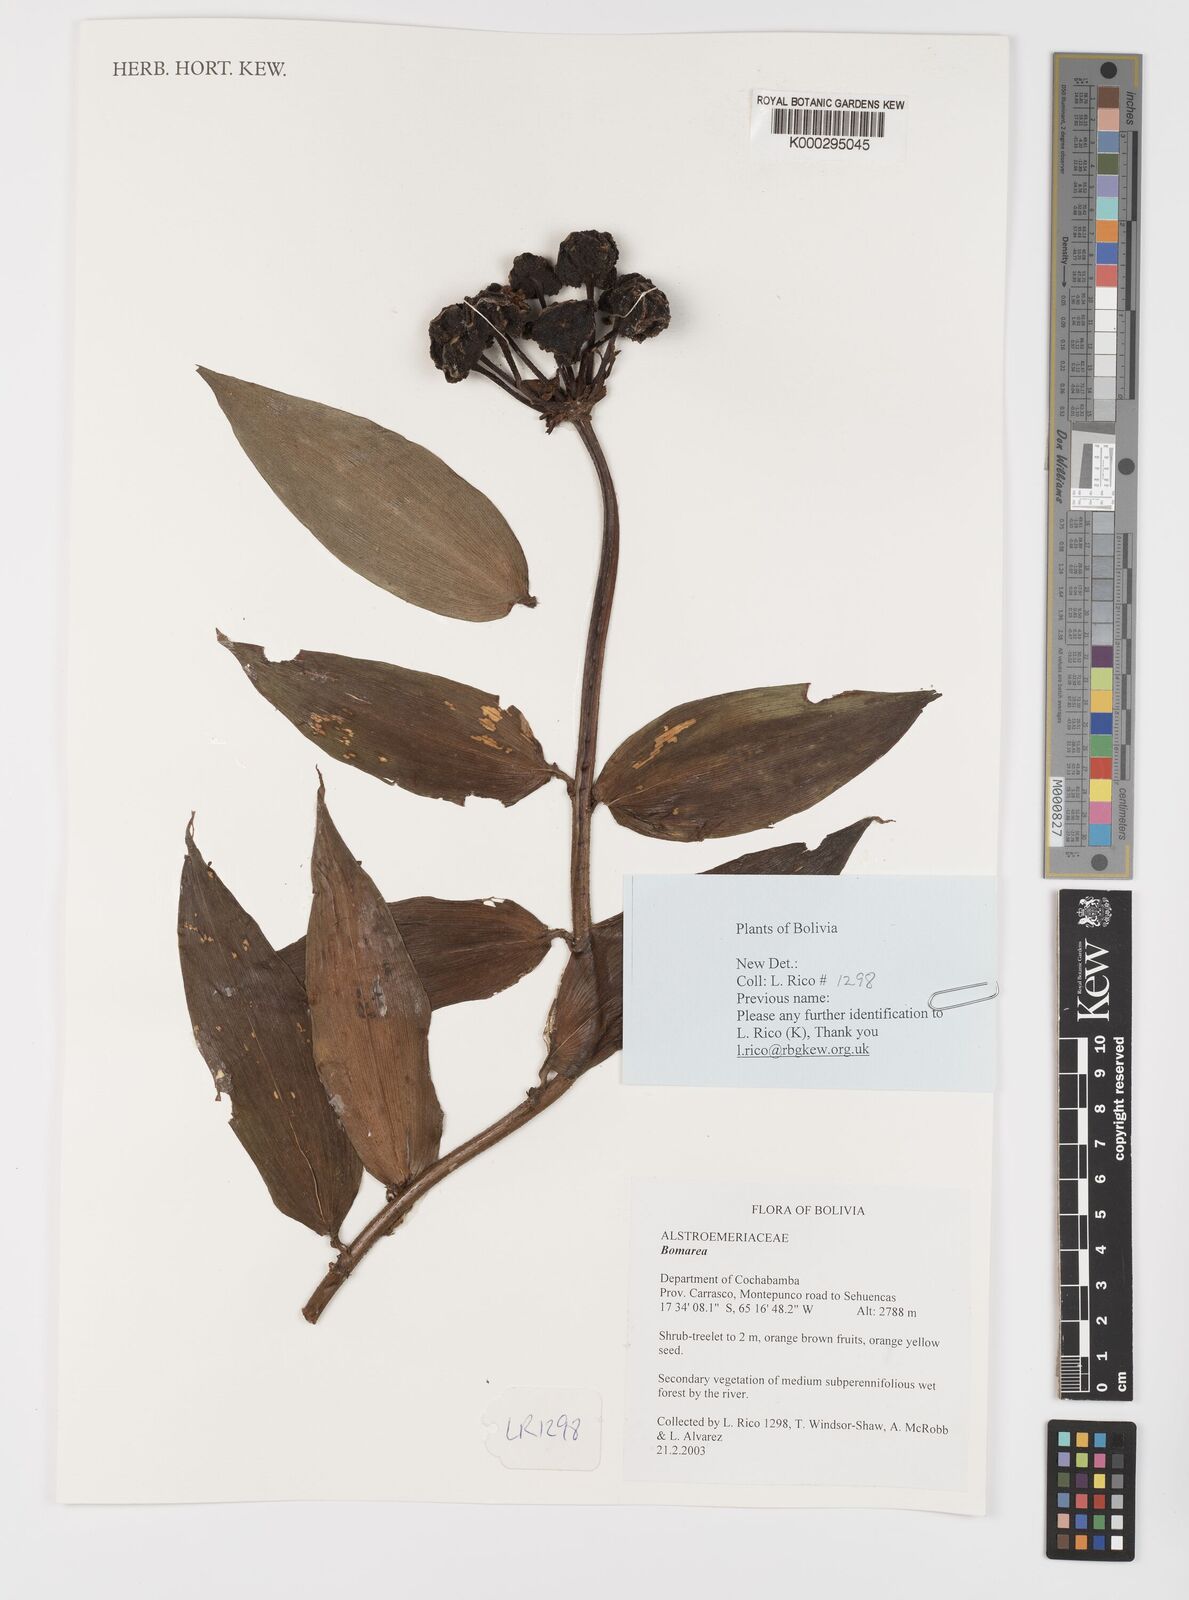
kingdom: Plantae
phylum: Tracheophyta
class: Liliopsida
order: Liliales
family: Alstroemeriaceae
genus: Bomarea
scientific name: Bomarea
